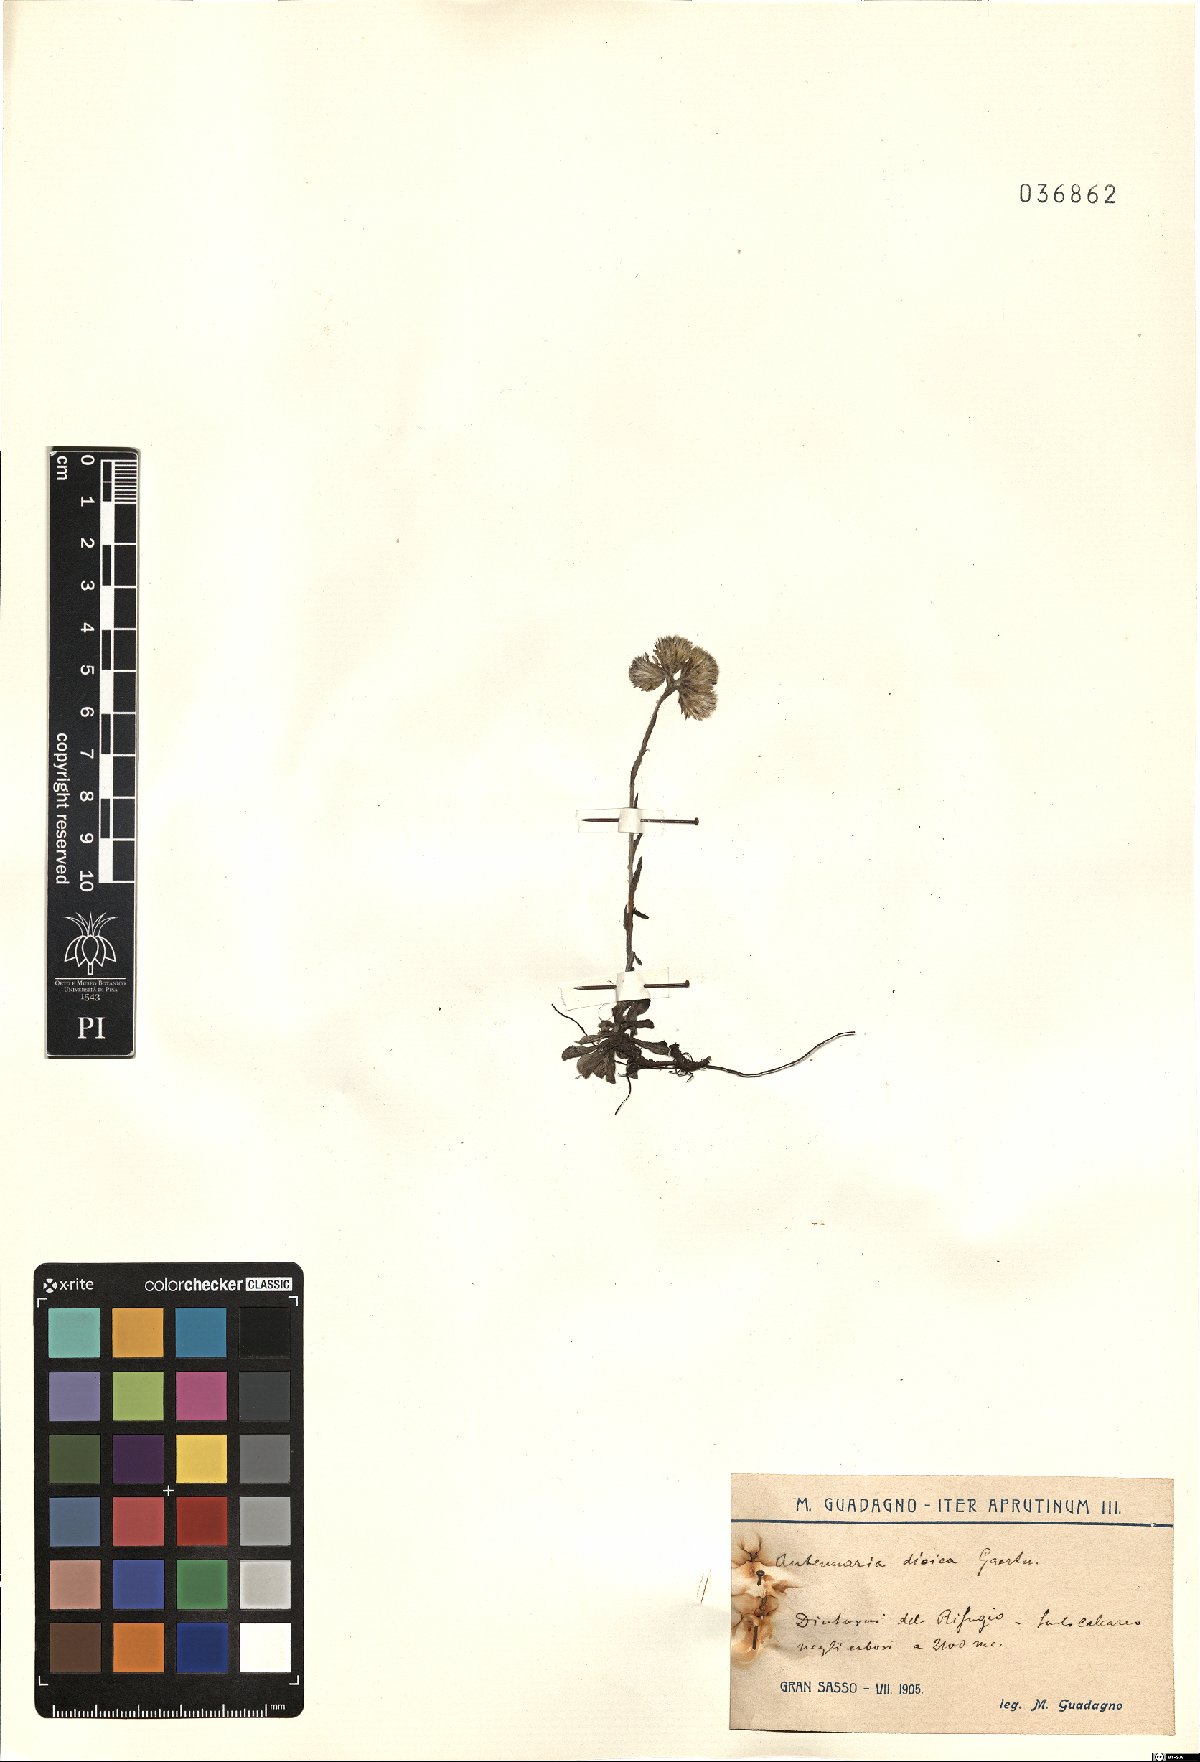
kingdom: Plantae
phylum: Tracheophyta
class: Magnoliopsida
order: Asterales
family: Asteraceae
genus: Antennaria
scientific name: Antennaria dioica
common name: Mountain everlasting
